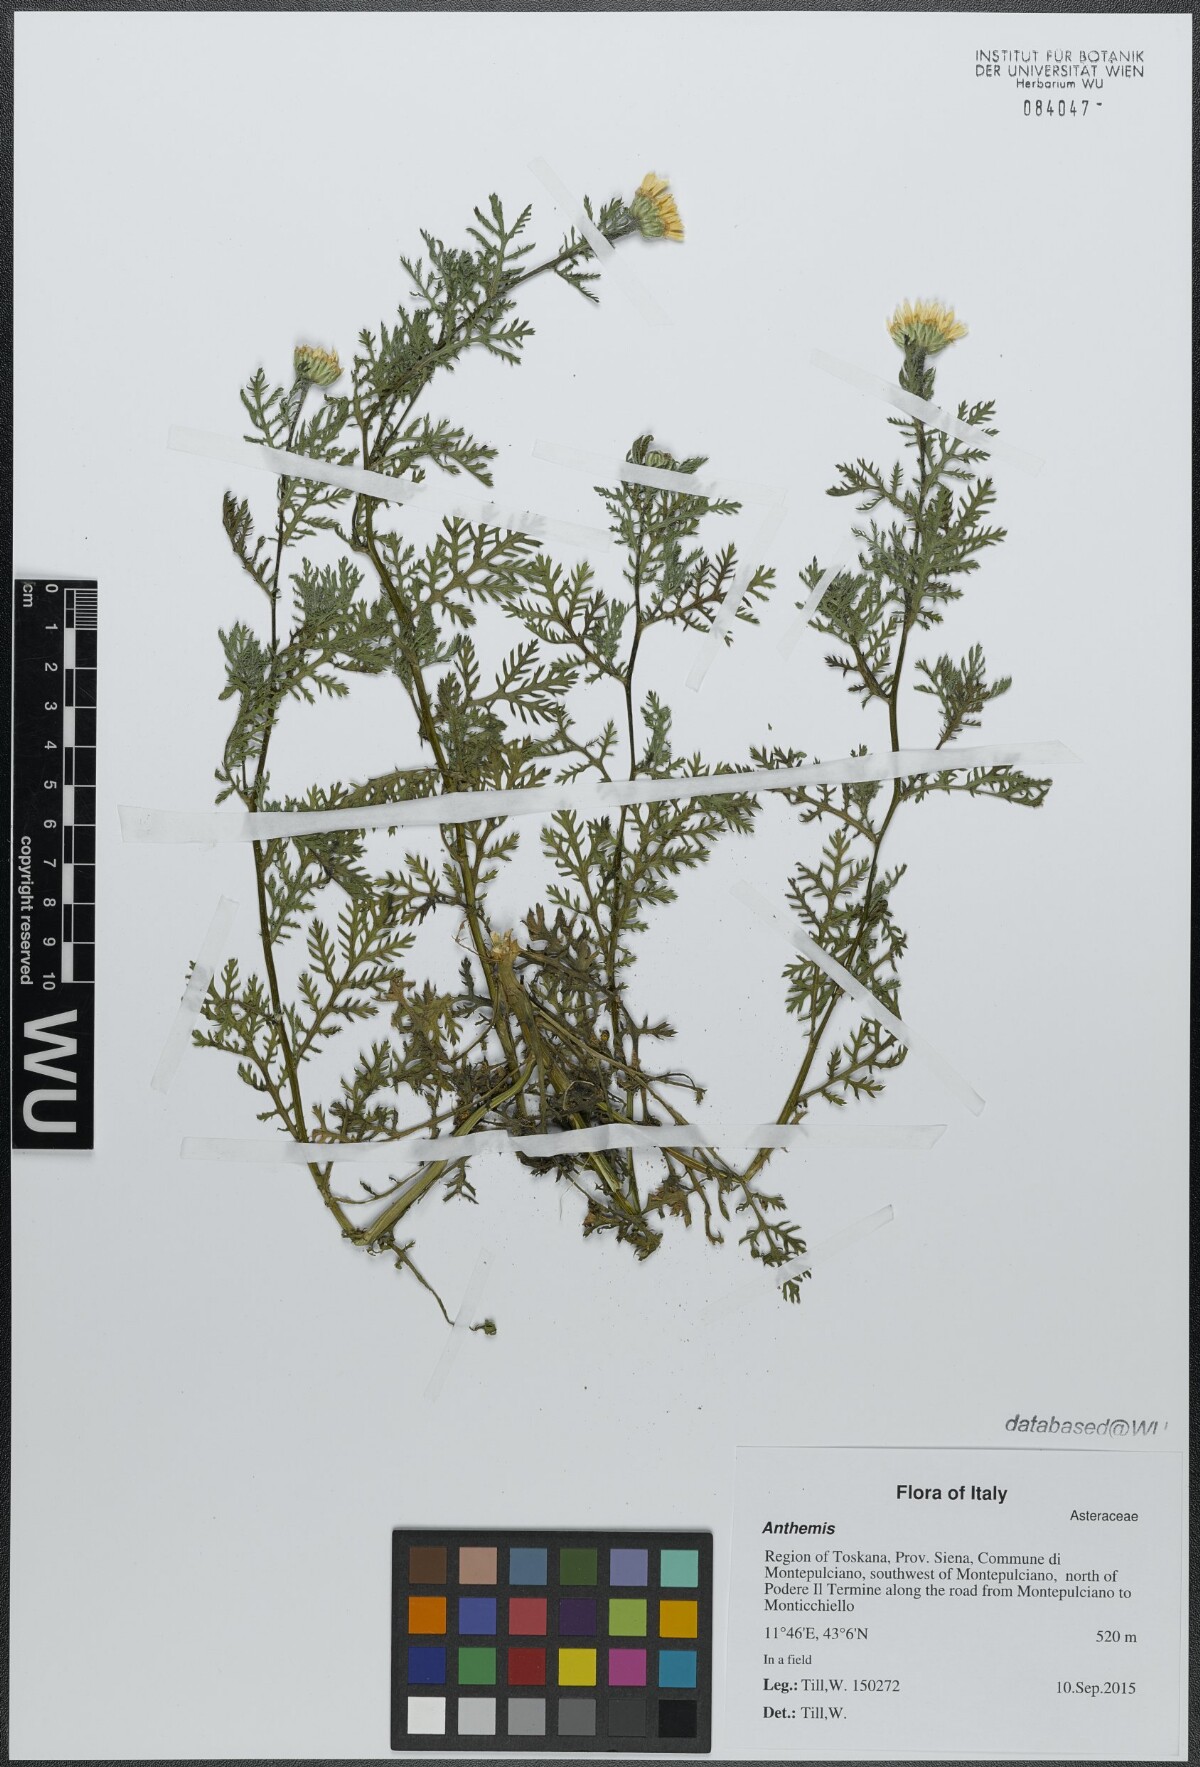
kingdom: Plantae
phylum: Tracheophyta
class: Magnoliopsida
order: Asterales
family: Asteraceae
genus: Anthemis
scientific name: Anthemis
